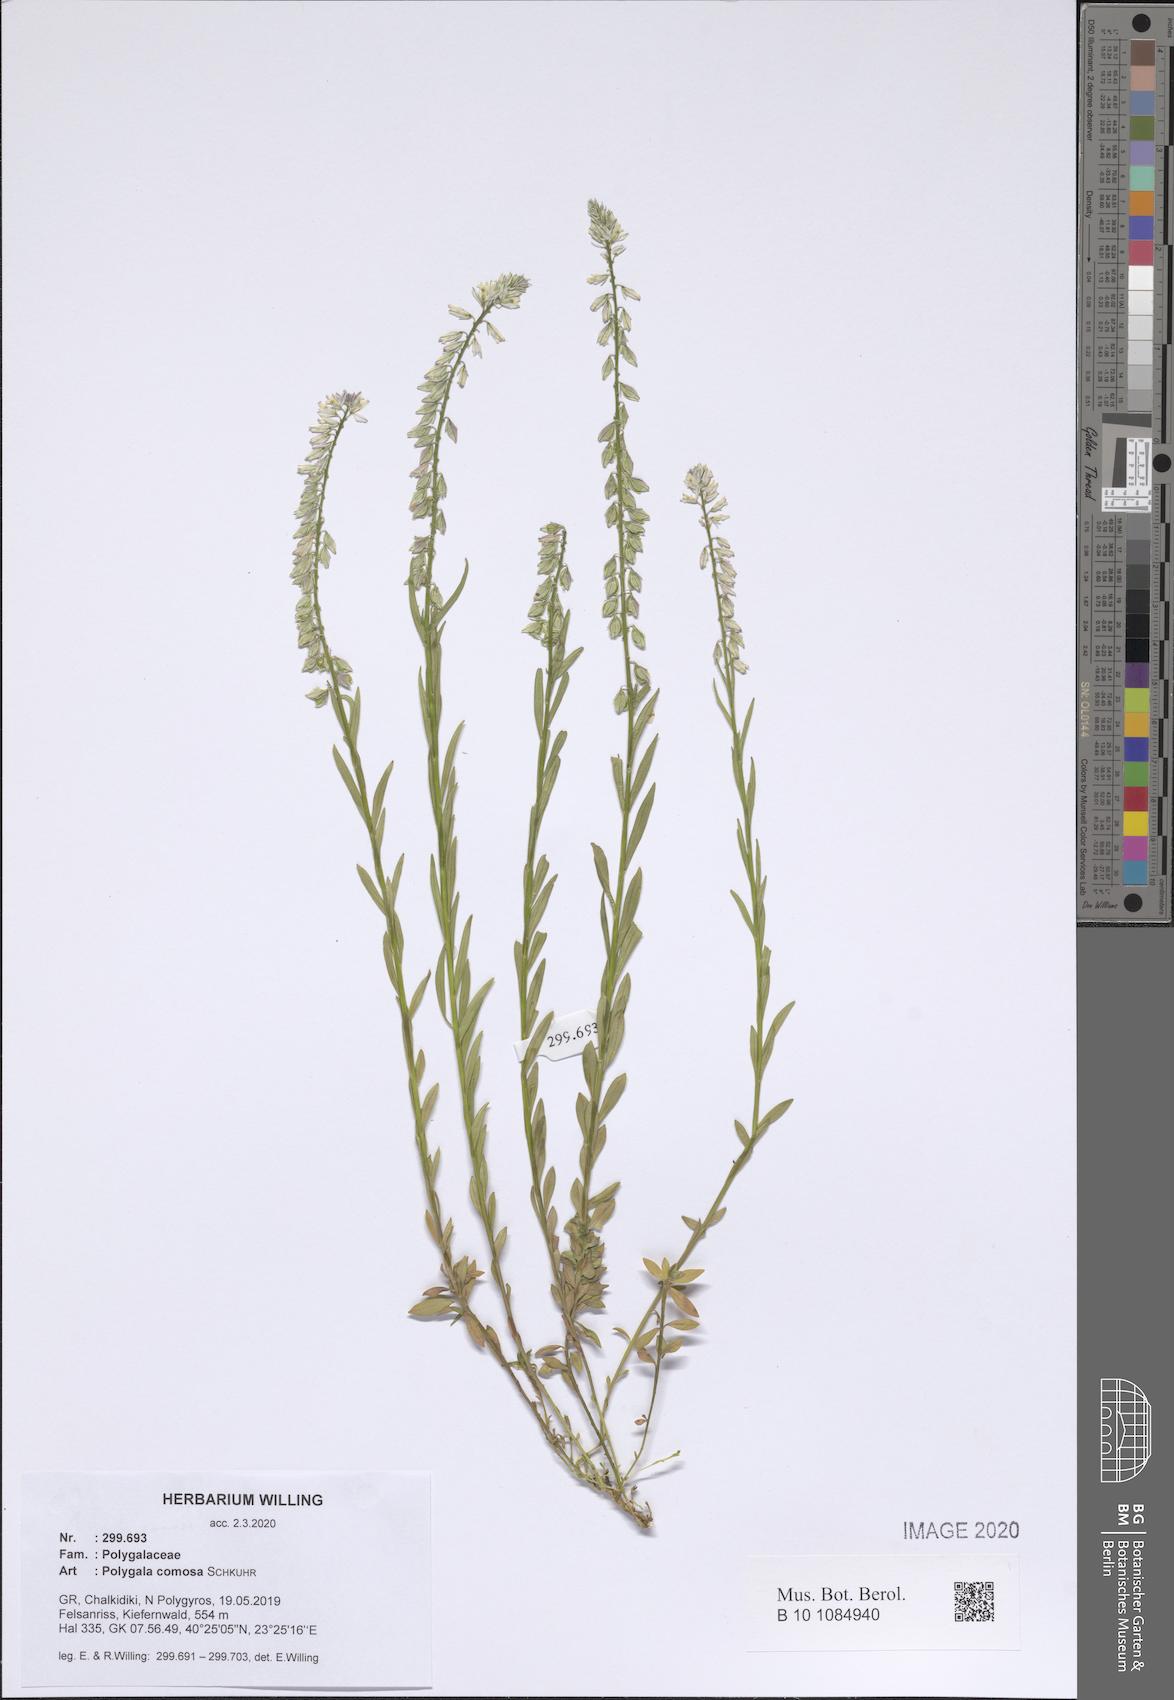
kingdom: Plantae
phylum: Tracheophyta
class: Magnoliopsida
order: Fabales
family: Polygalaceae
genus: Polygala
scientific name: Polygala comosa
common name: Tufted milkwort
